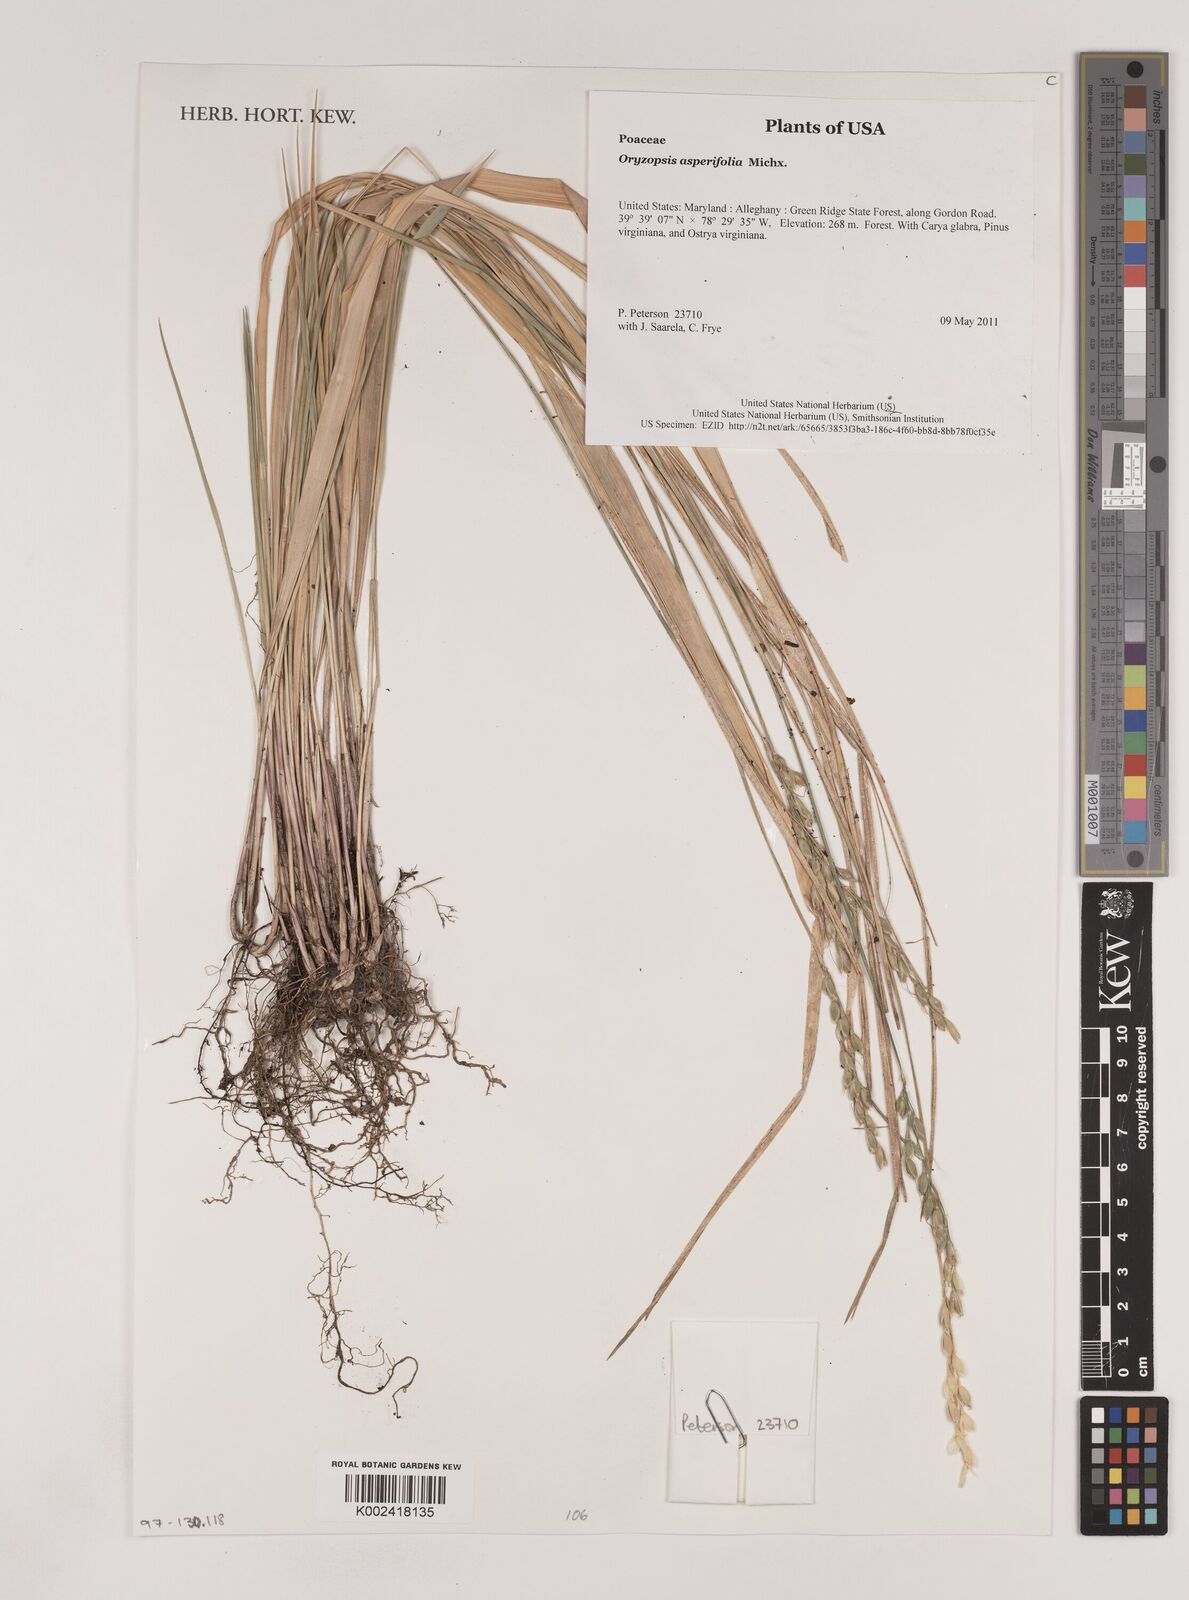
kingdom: Plantae
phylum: Tracheophyta
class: Liliopsida
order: Poales
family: Poaceae
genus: Oryzopsis
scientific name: Oryzopsis asperifolia
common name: Rough-leaved mountain rice
